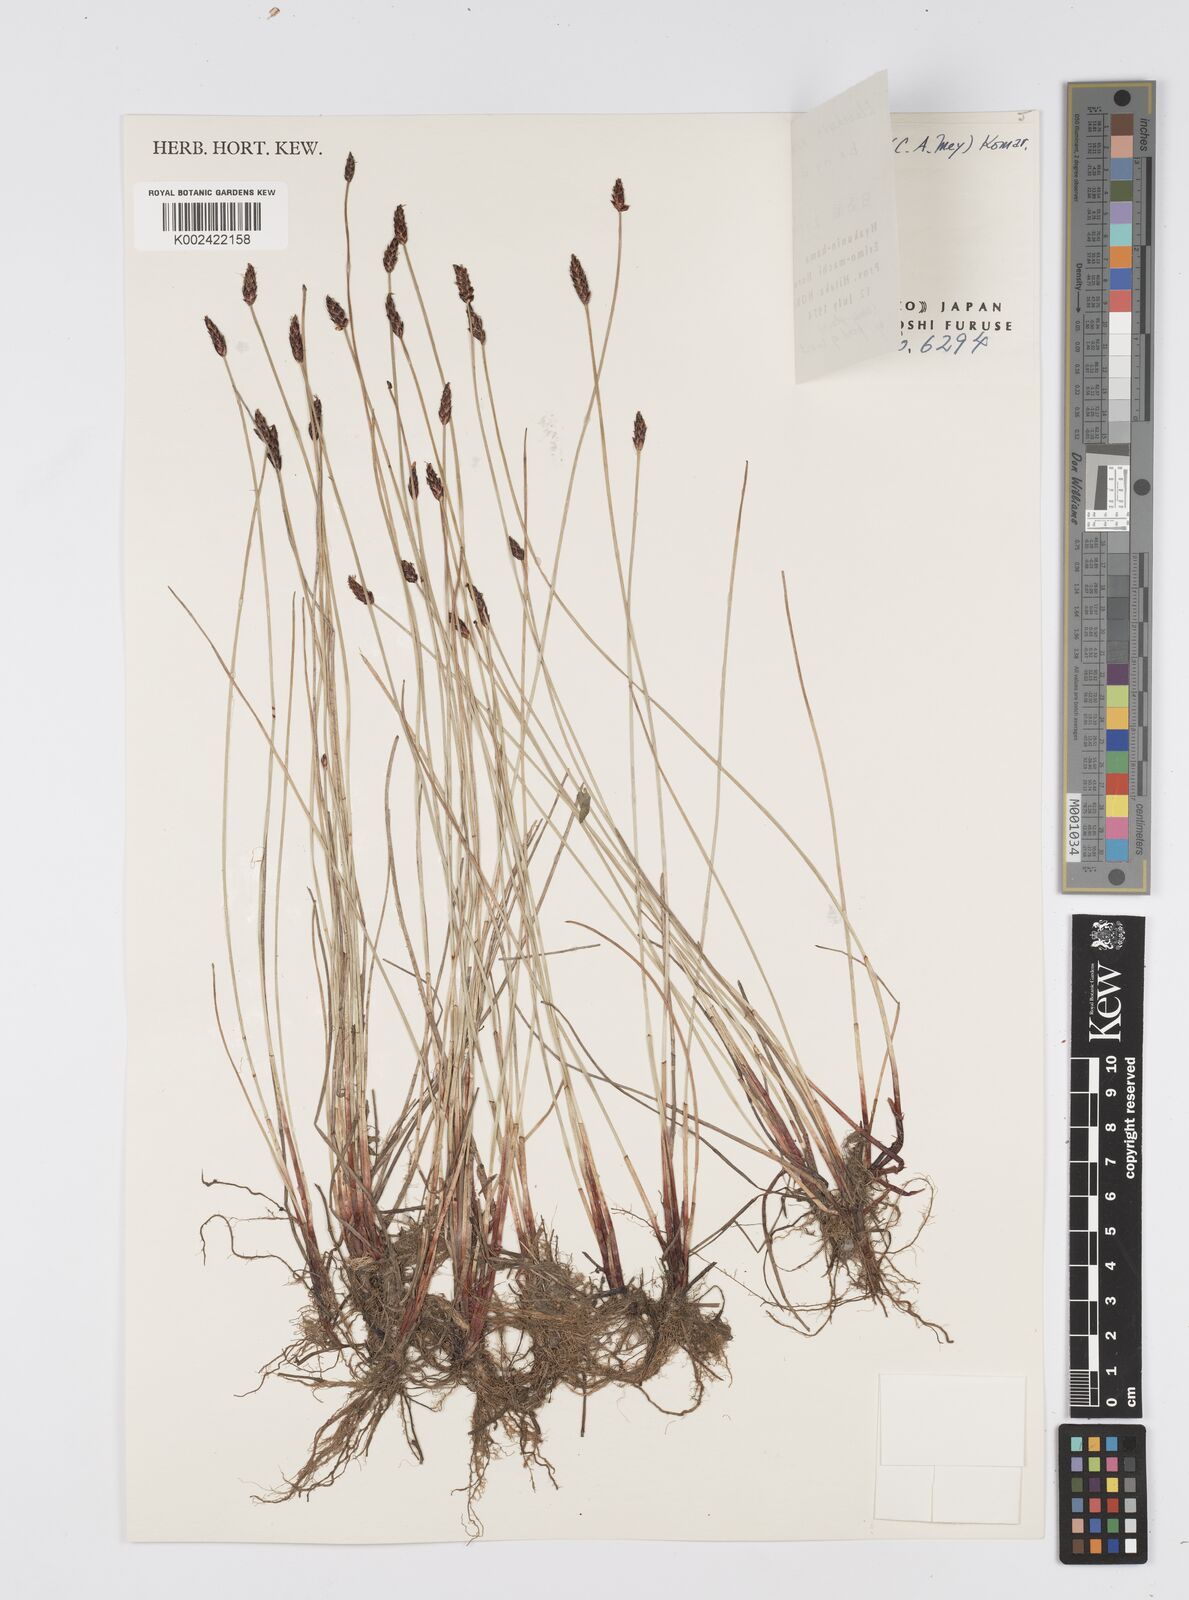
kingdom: Plantae
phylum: Tracheophyta
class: Liliopsida
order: Poales
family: Cyperaceae
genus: Eleocharis
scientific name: Eleocharis kamtschatica
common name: Kamchatka spikerush
